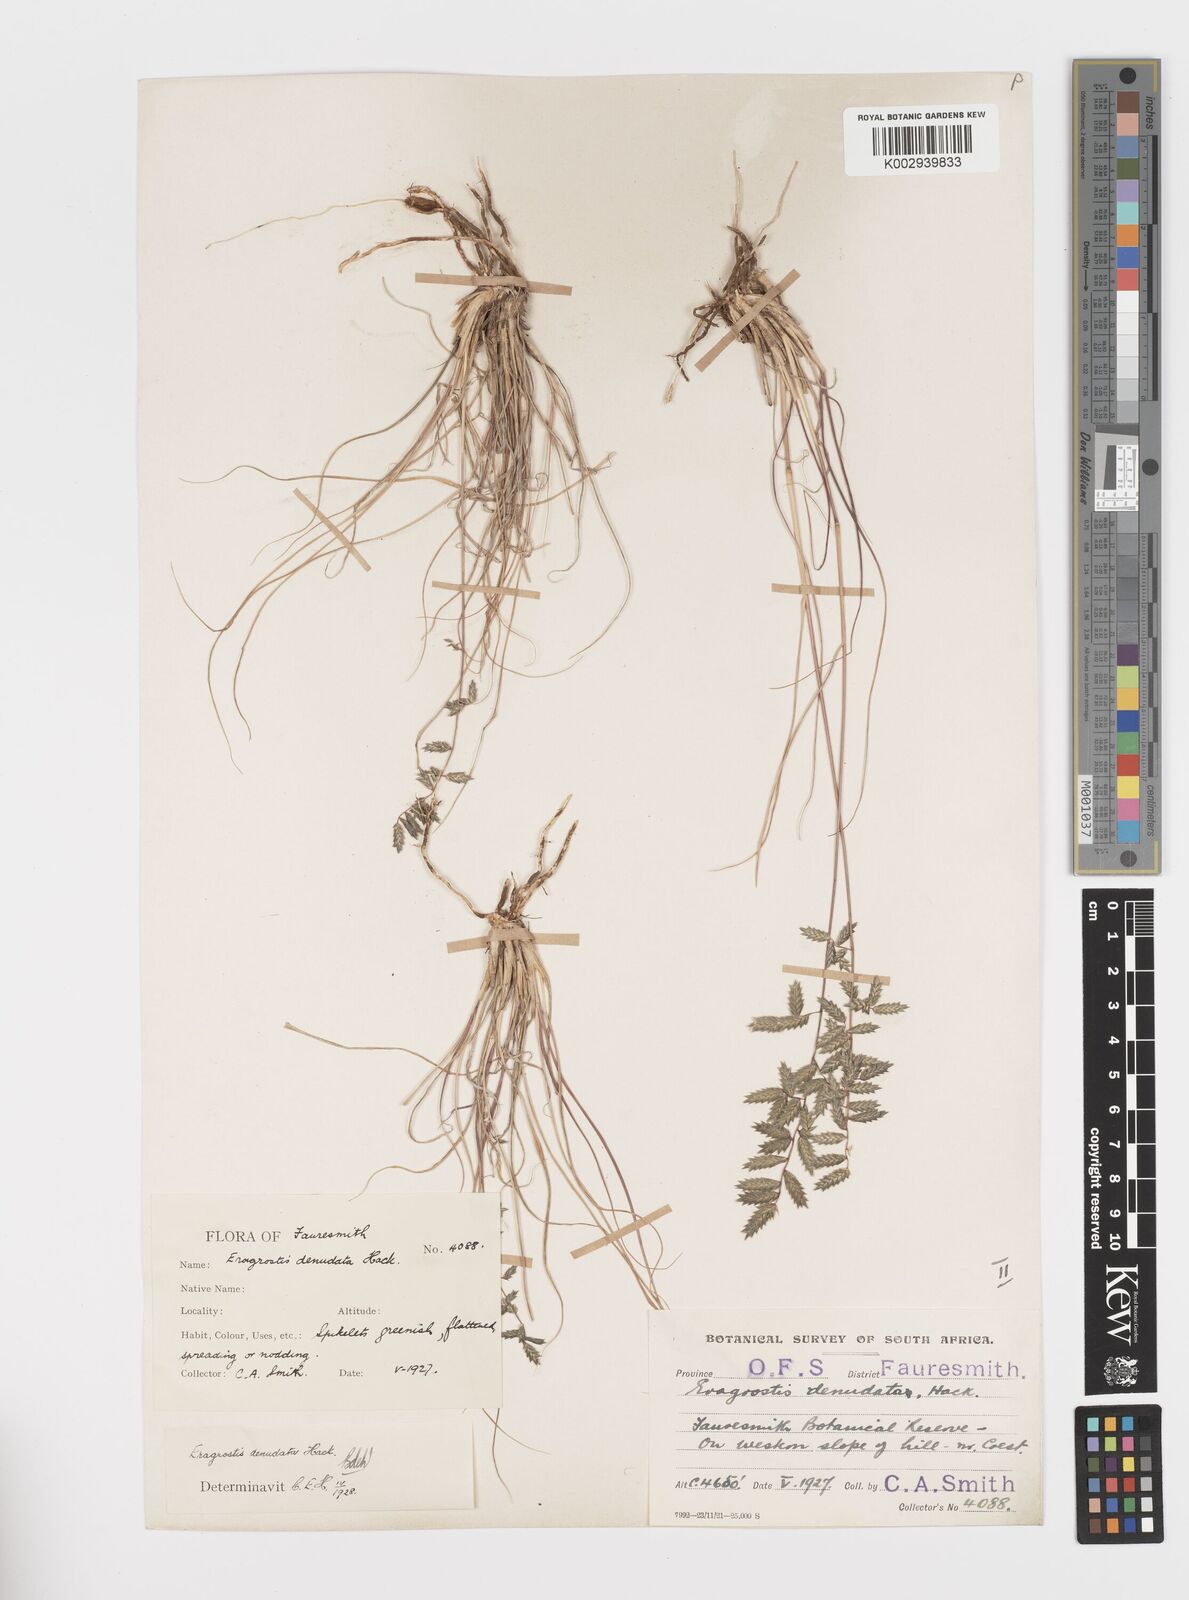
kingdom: Plantae
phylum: Tracheophyta
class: Liliopsida
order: Poales
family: Poaceae
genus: Eragrostis
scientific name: Eragrostis nindensis
